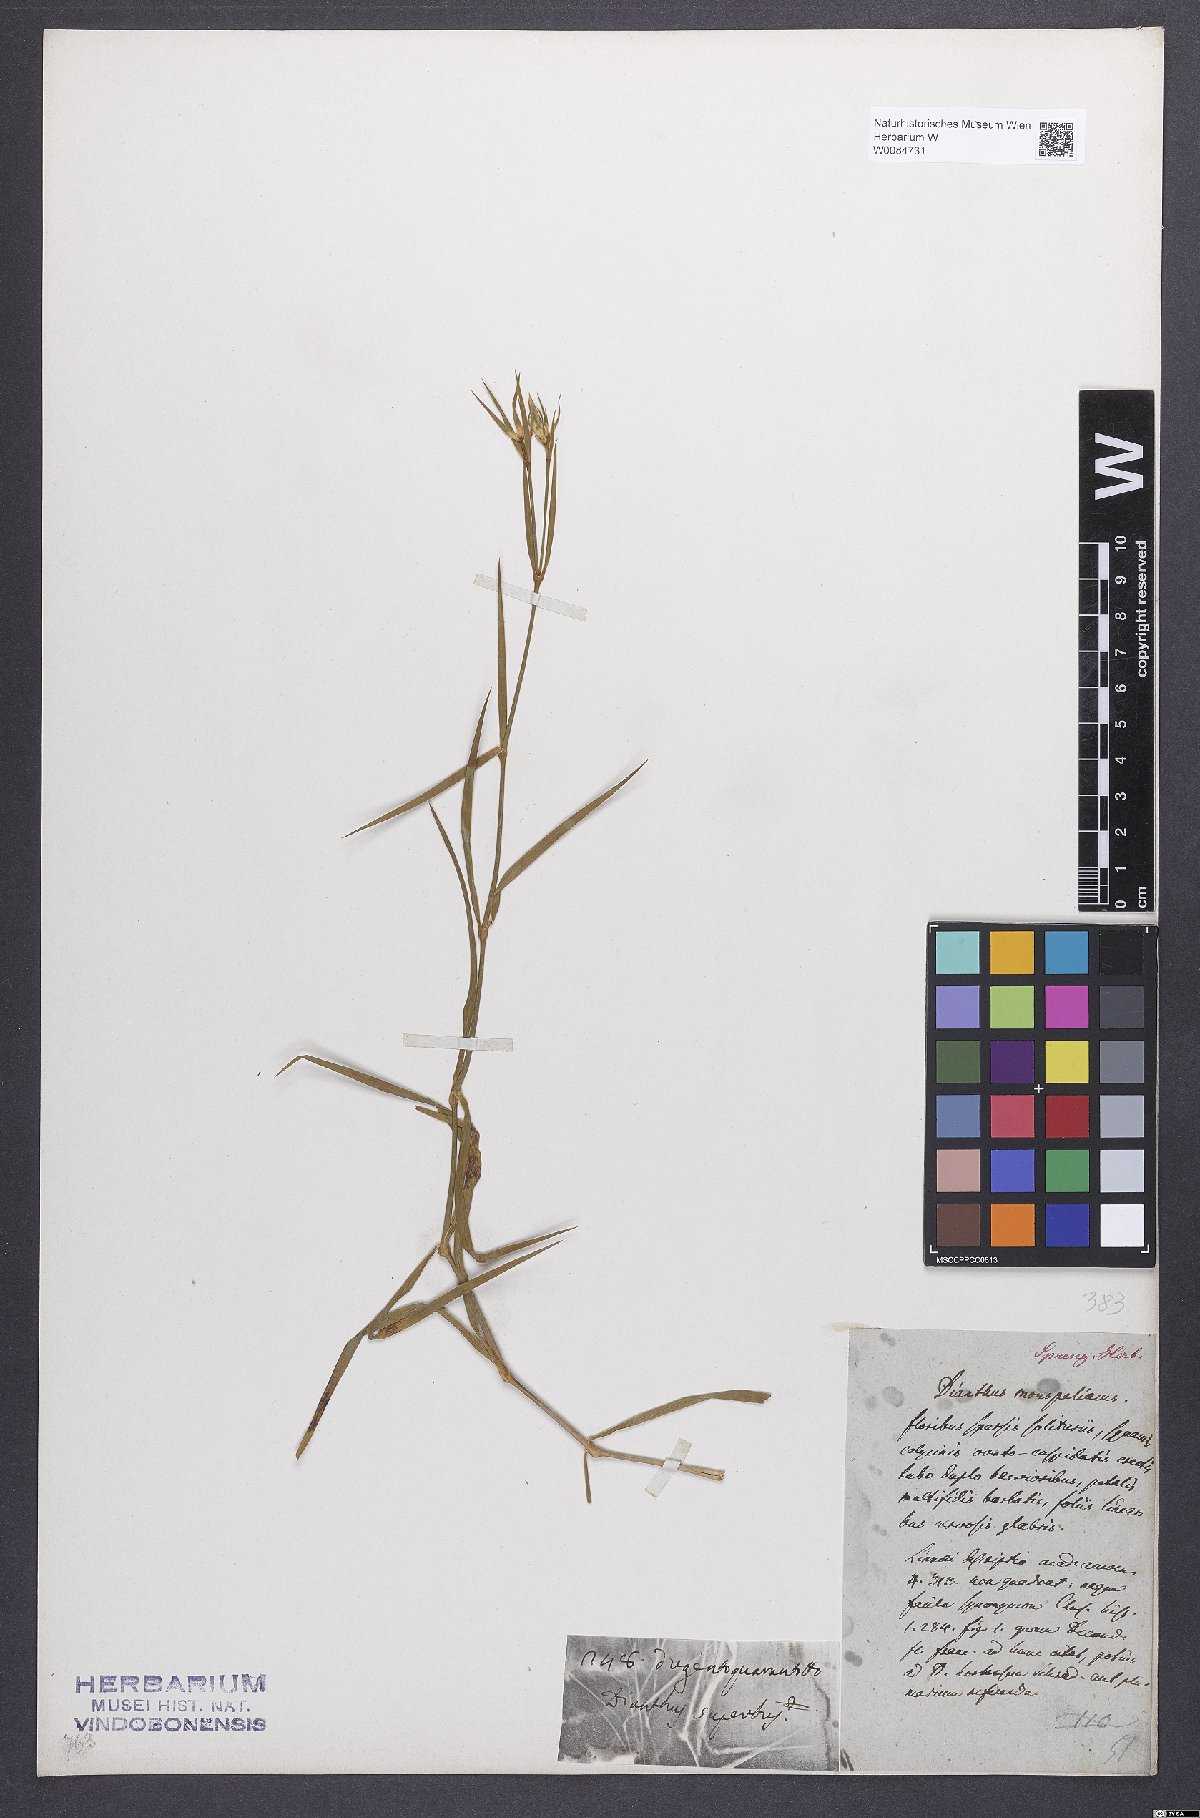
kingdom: Plantae
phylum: Tracheophyta
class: Magnoliopsida
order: Caryophyllales
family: Caryophyllaceae
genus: Dianthus
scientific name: Dianthus hyssopifolius
